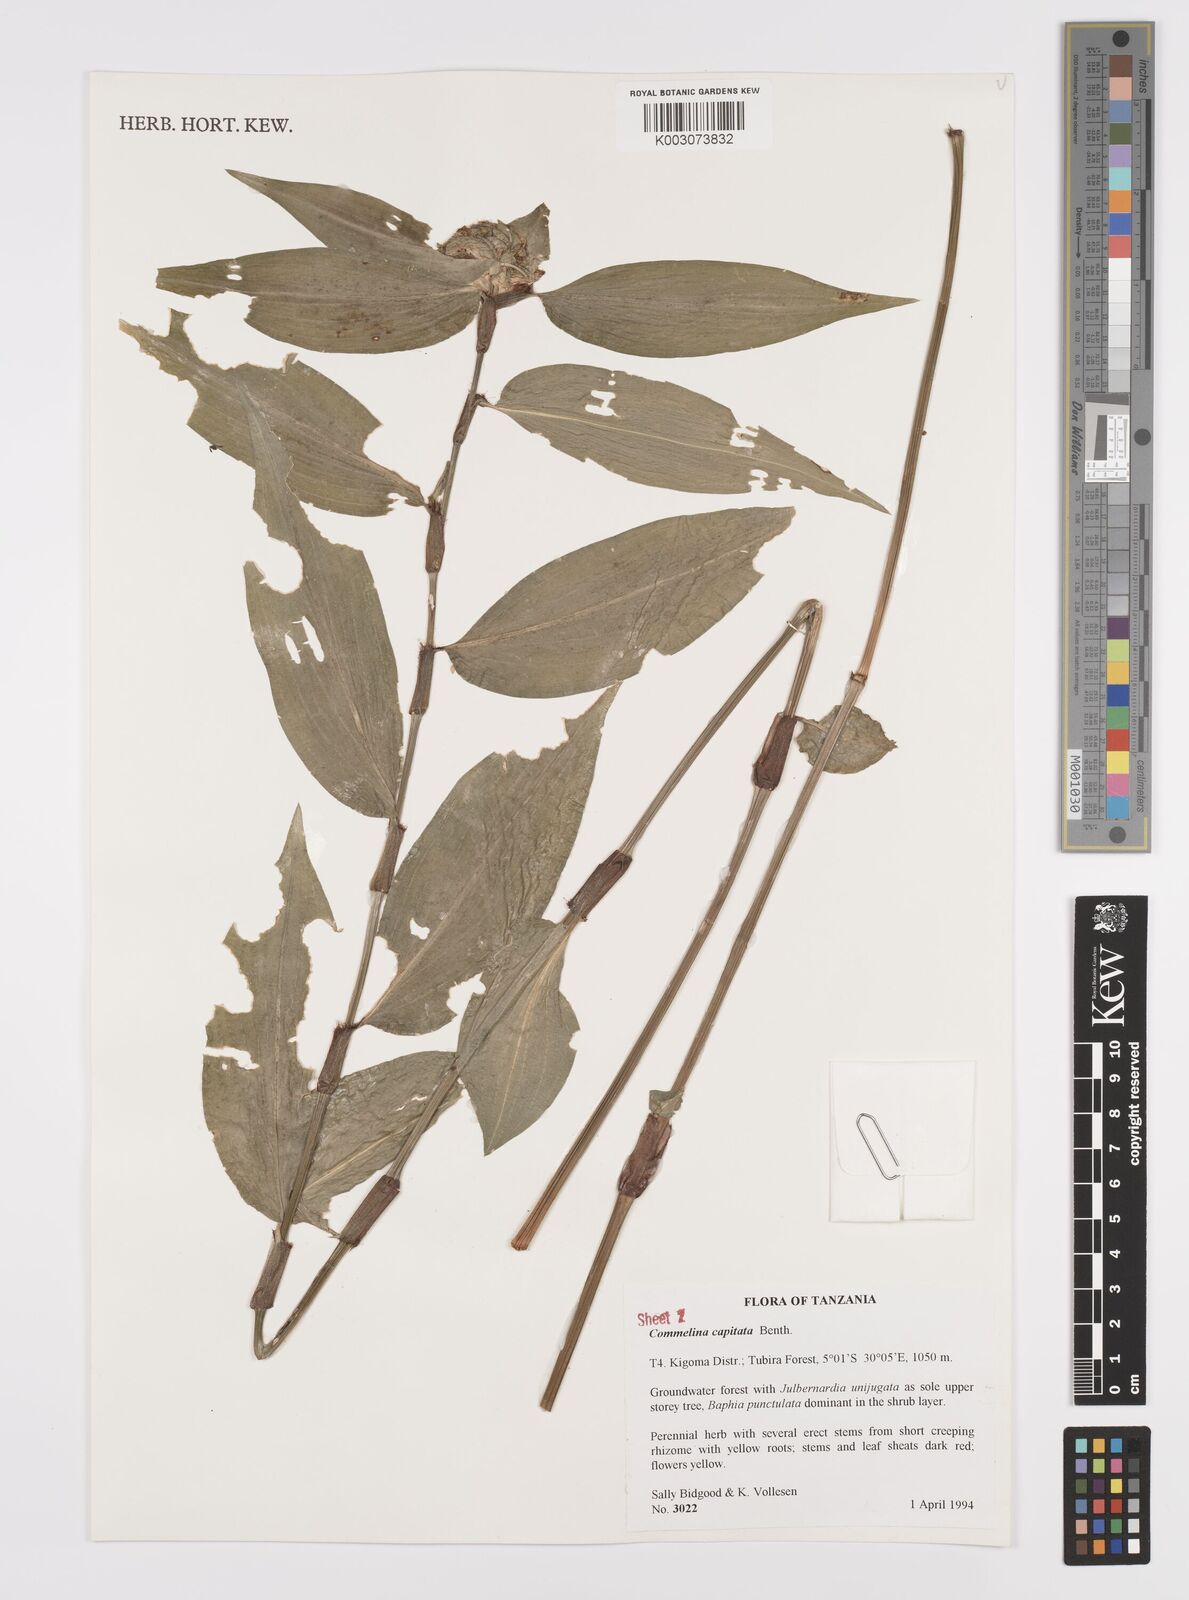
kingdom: Plantae
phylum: Tracheophyta
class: Liliopsida
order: Commelinales
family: Commelinaceae
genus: Commelina
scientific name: Commelina capitata
